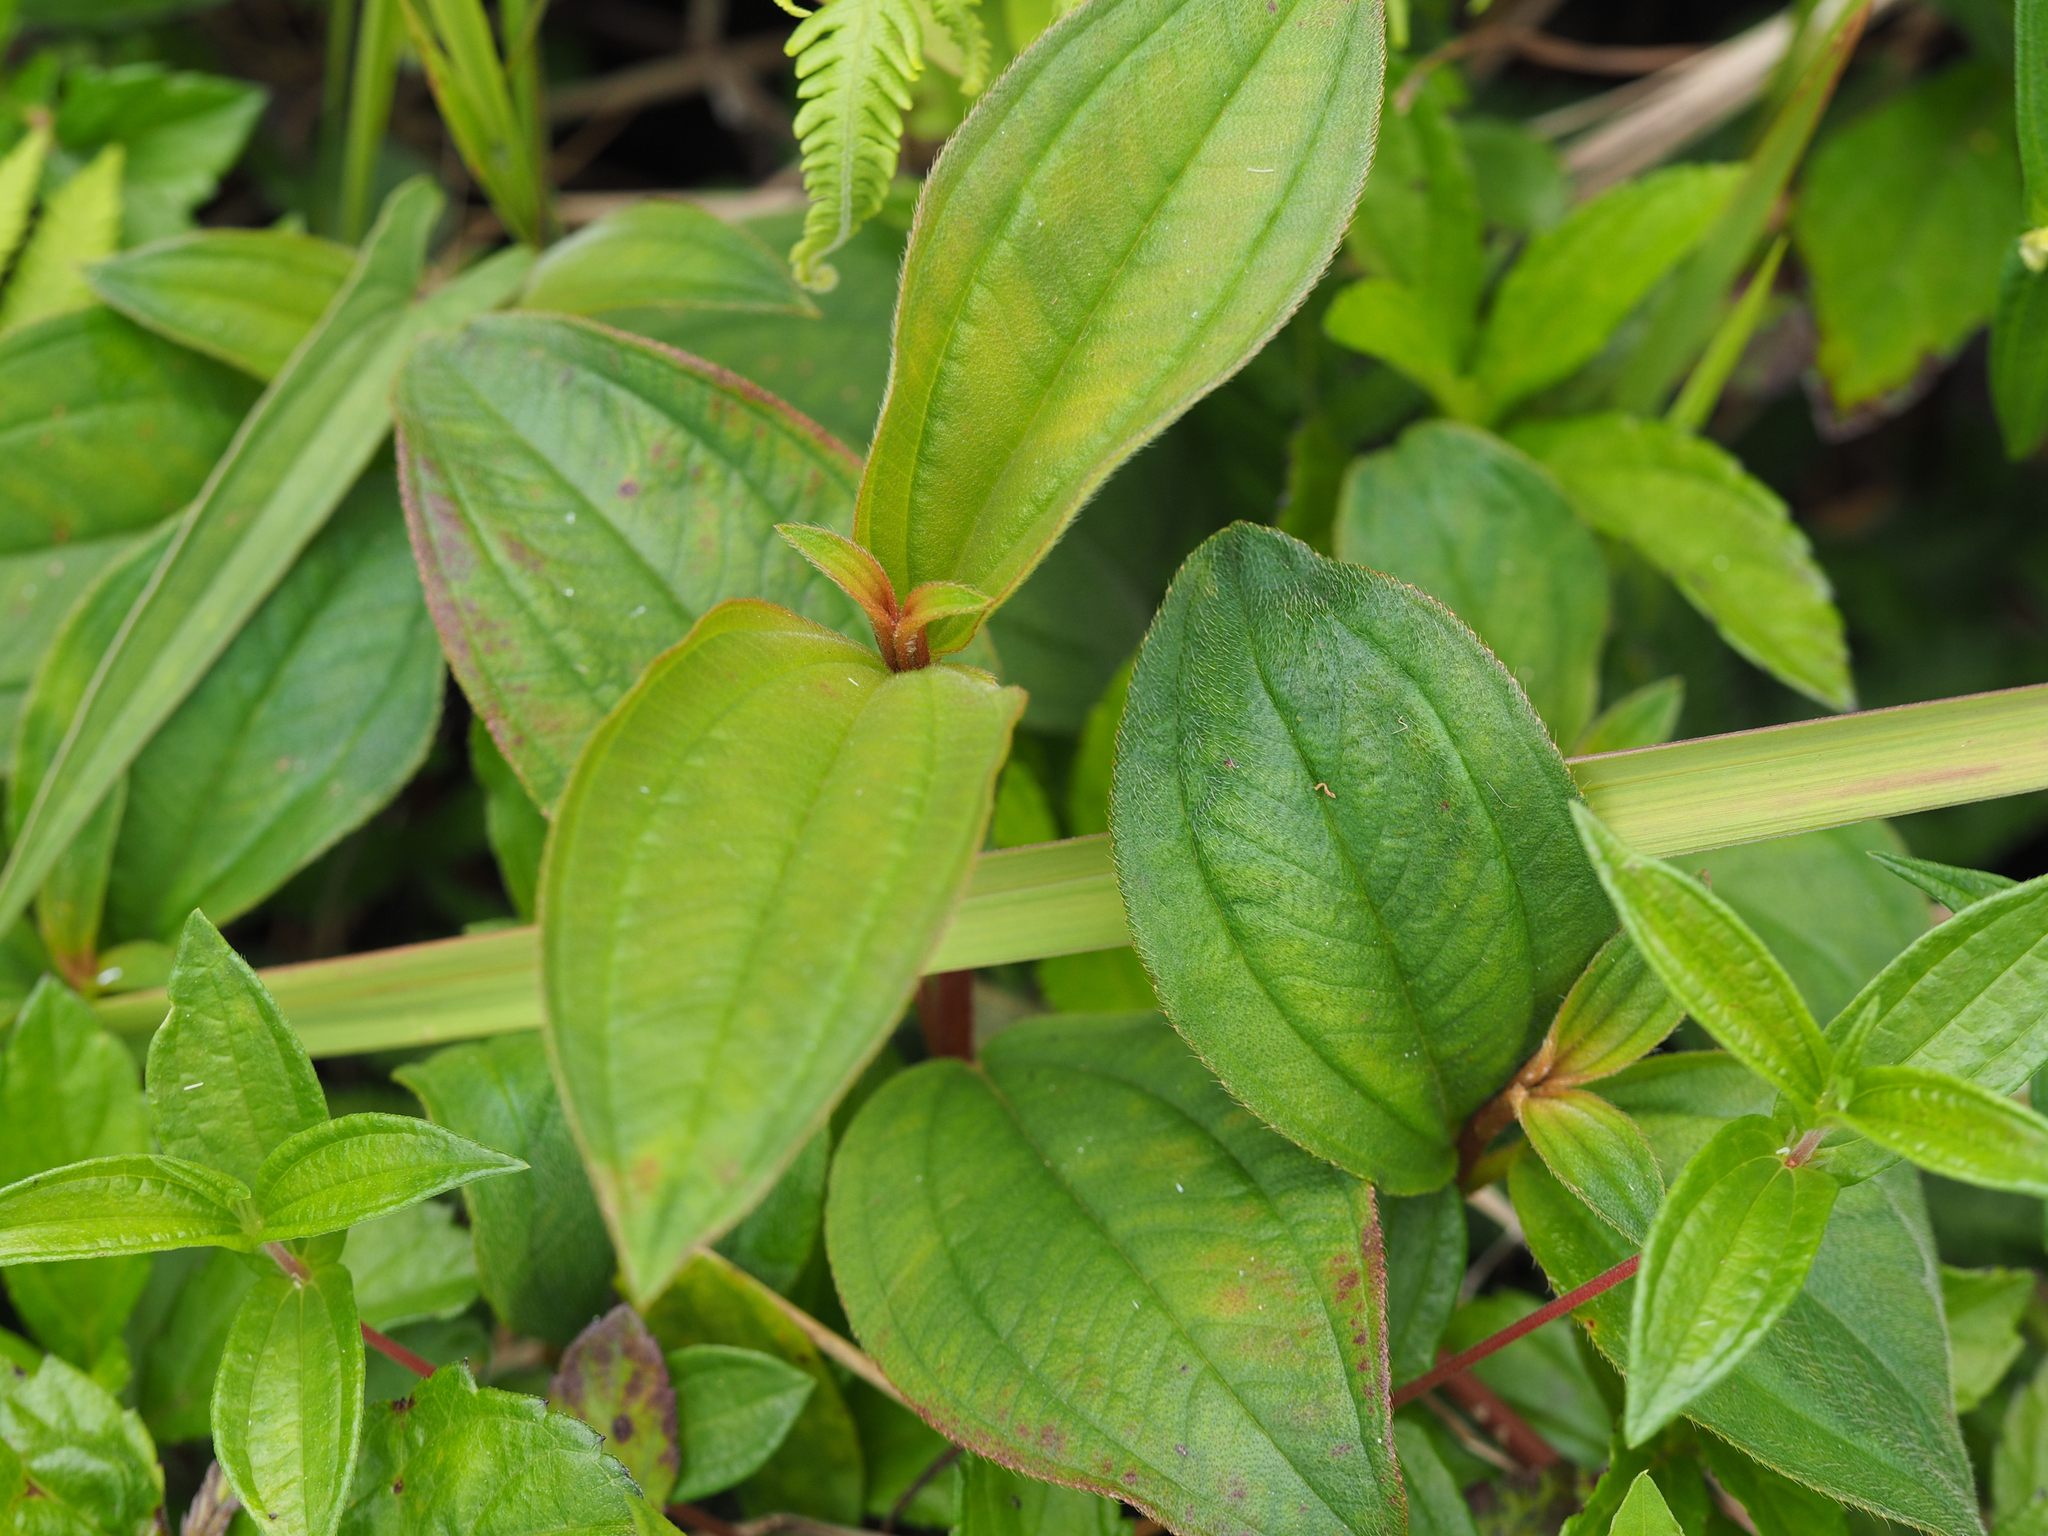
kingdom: Plantae
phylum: Tracheophyta
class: Magnoliopsida
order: Myrtales
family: Melastomataceae
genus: Melastoma
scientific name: Melastoma malabathricum
